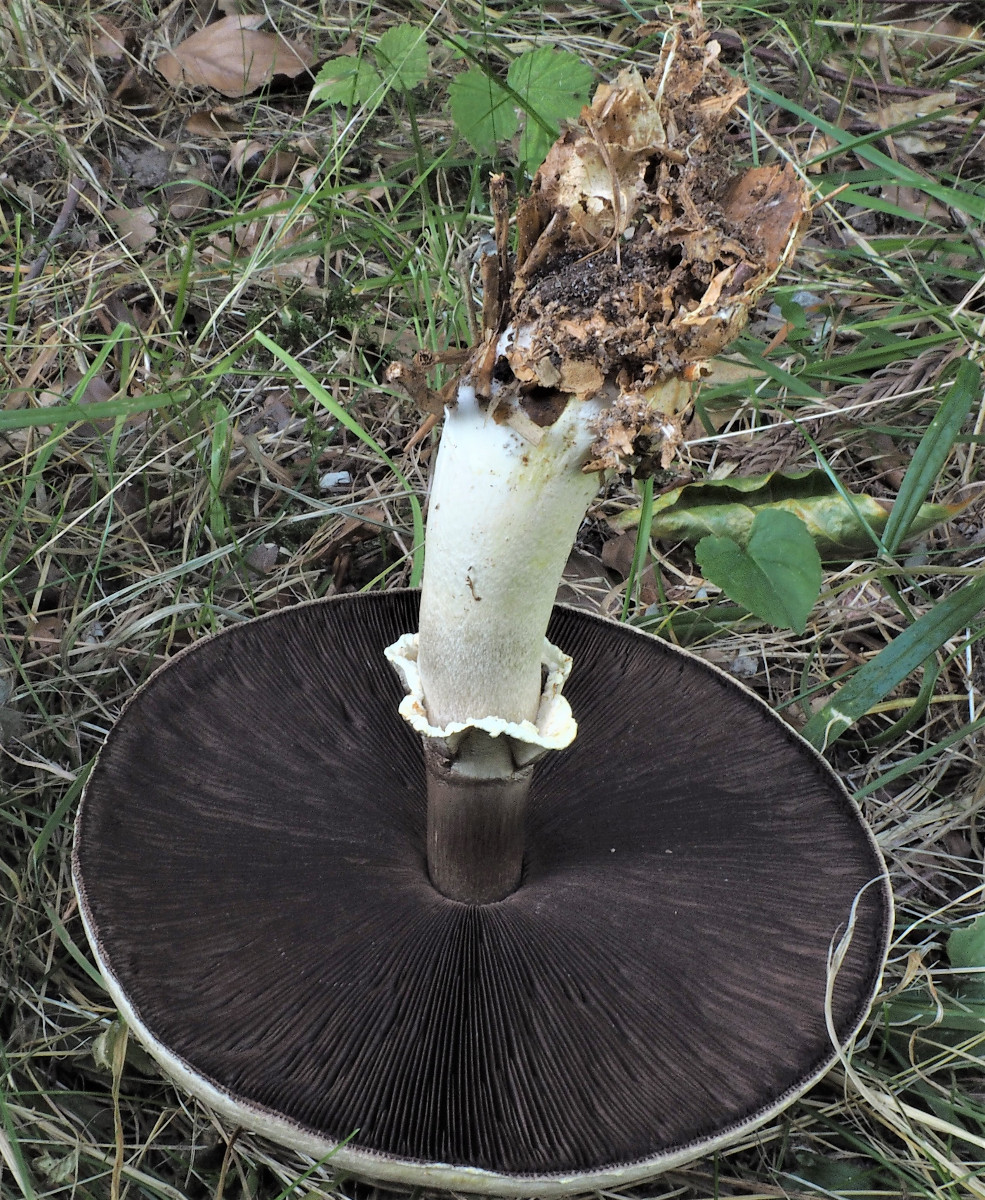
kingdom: Fungi
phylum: Basidiomycota
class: Agaricomycetes
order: Agaricales
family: Agaricaceae
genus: Agaricus
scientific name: Agaricus
